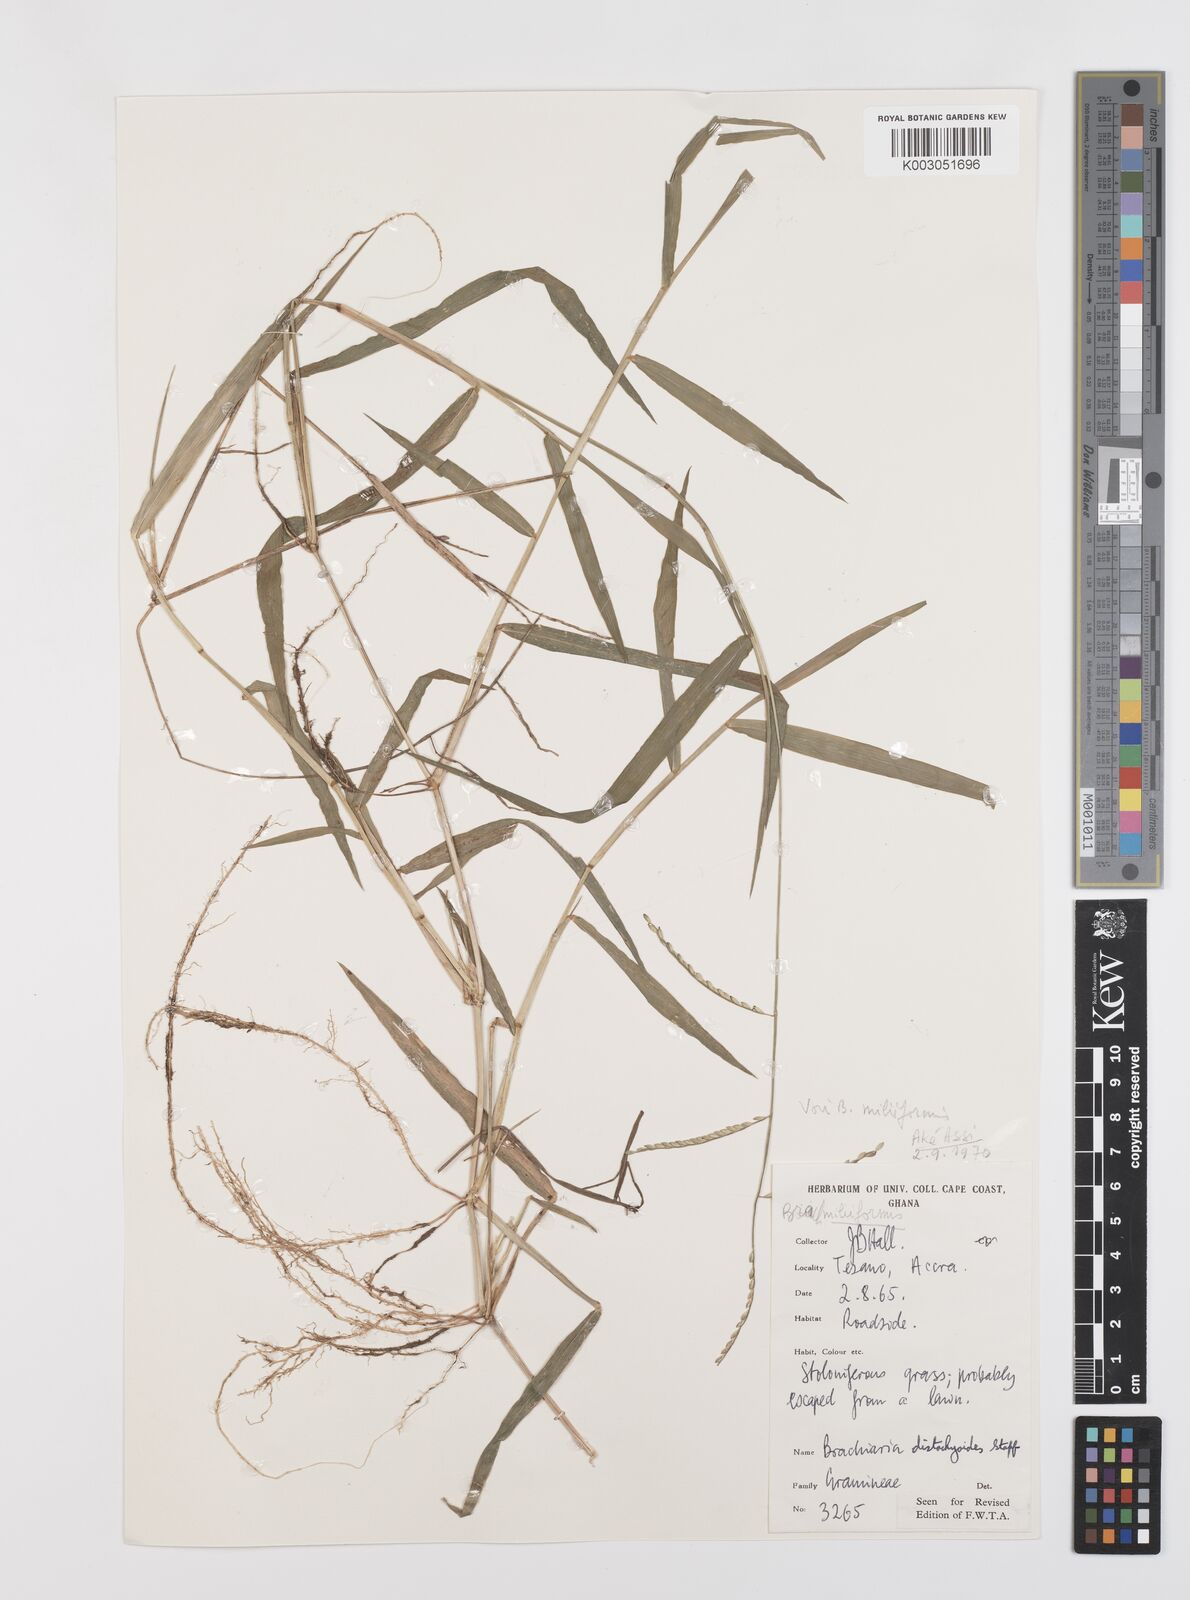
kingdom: Plantae
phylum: Tracheophyta
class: Liliopsida
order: Poales
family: Poaceae
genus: Urochloa
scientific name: Urochloa subquadripara
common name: Armgrass millet
